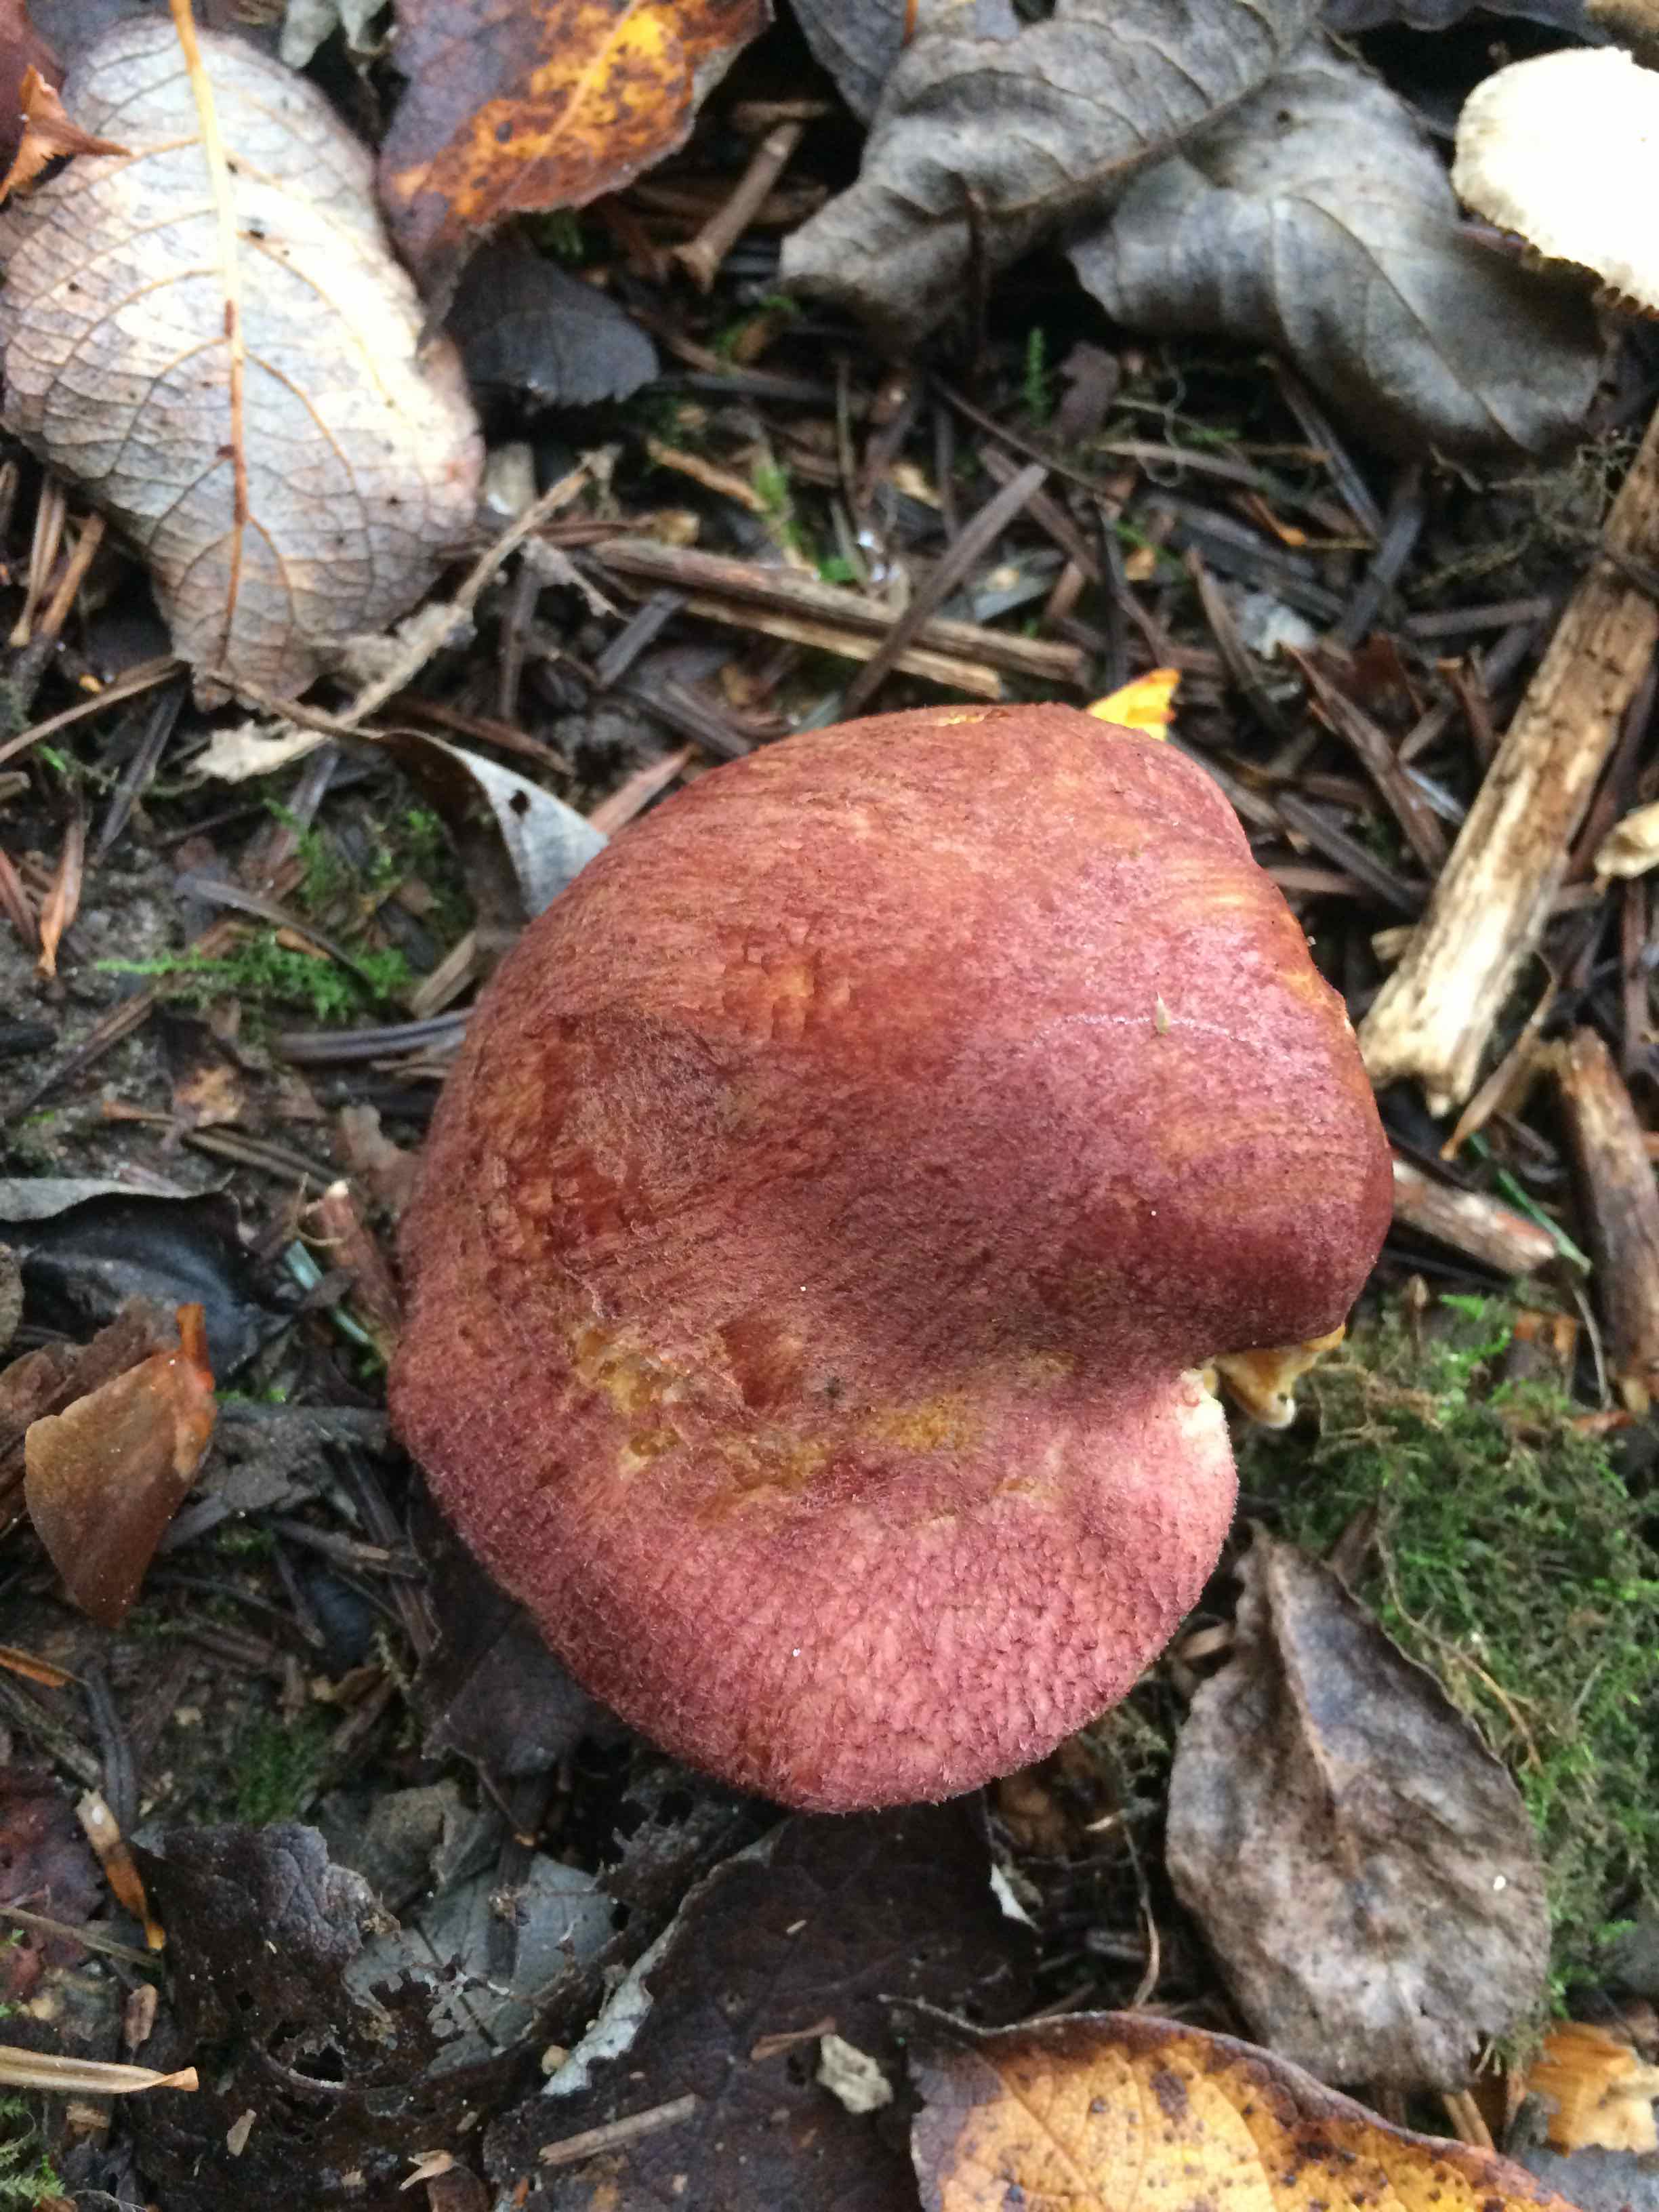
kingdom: Fungi
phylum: Basidiomycota
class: Agaricomycetes
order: Agaricales
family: Tricholomataceae
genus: Tricholomopsis
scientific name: Tricholomopsis rutilans
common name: purpur-væbnerhat
